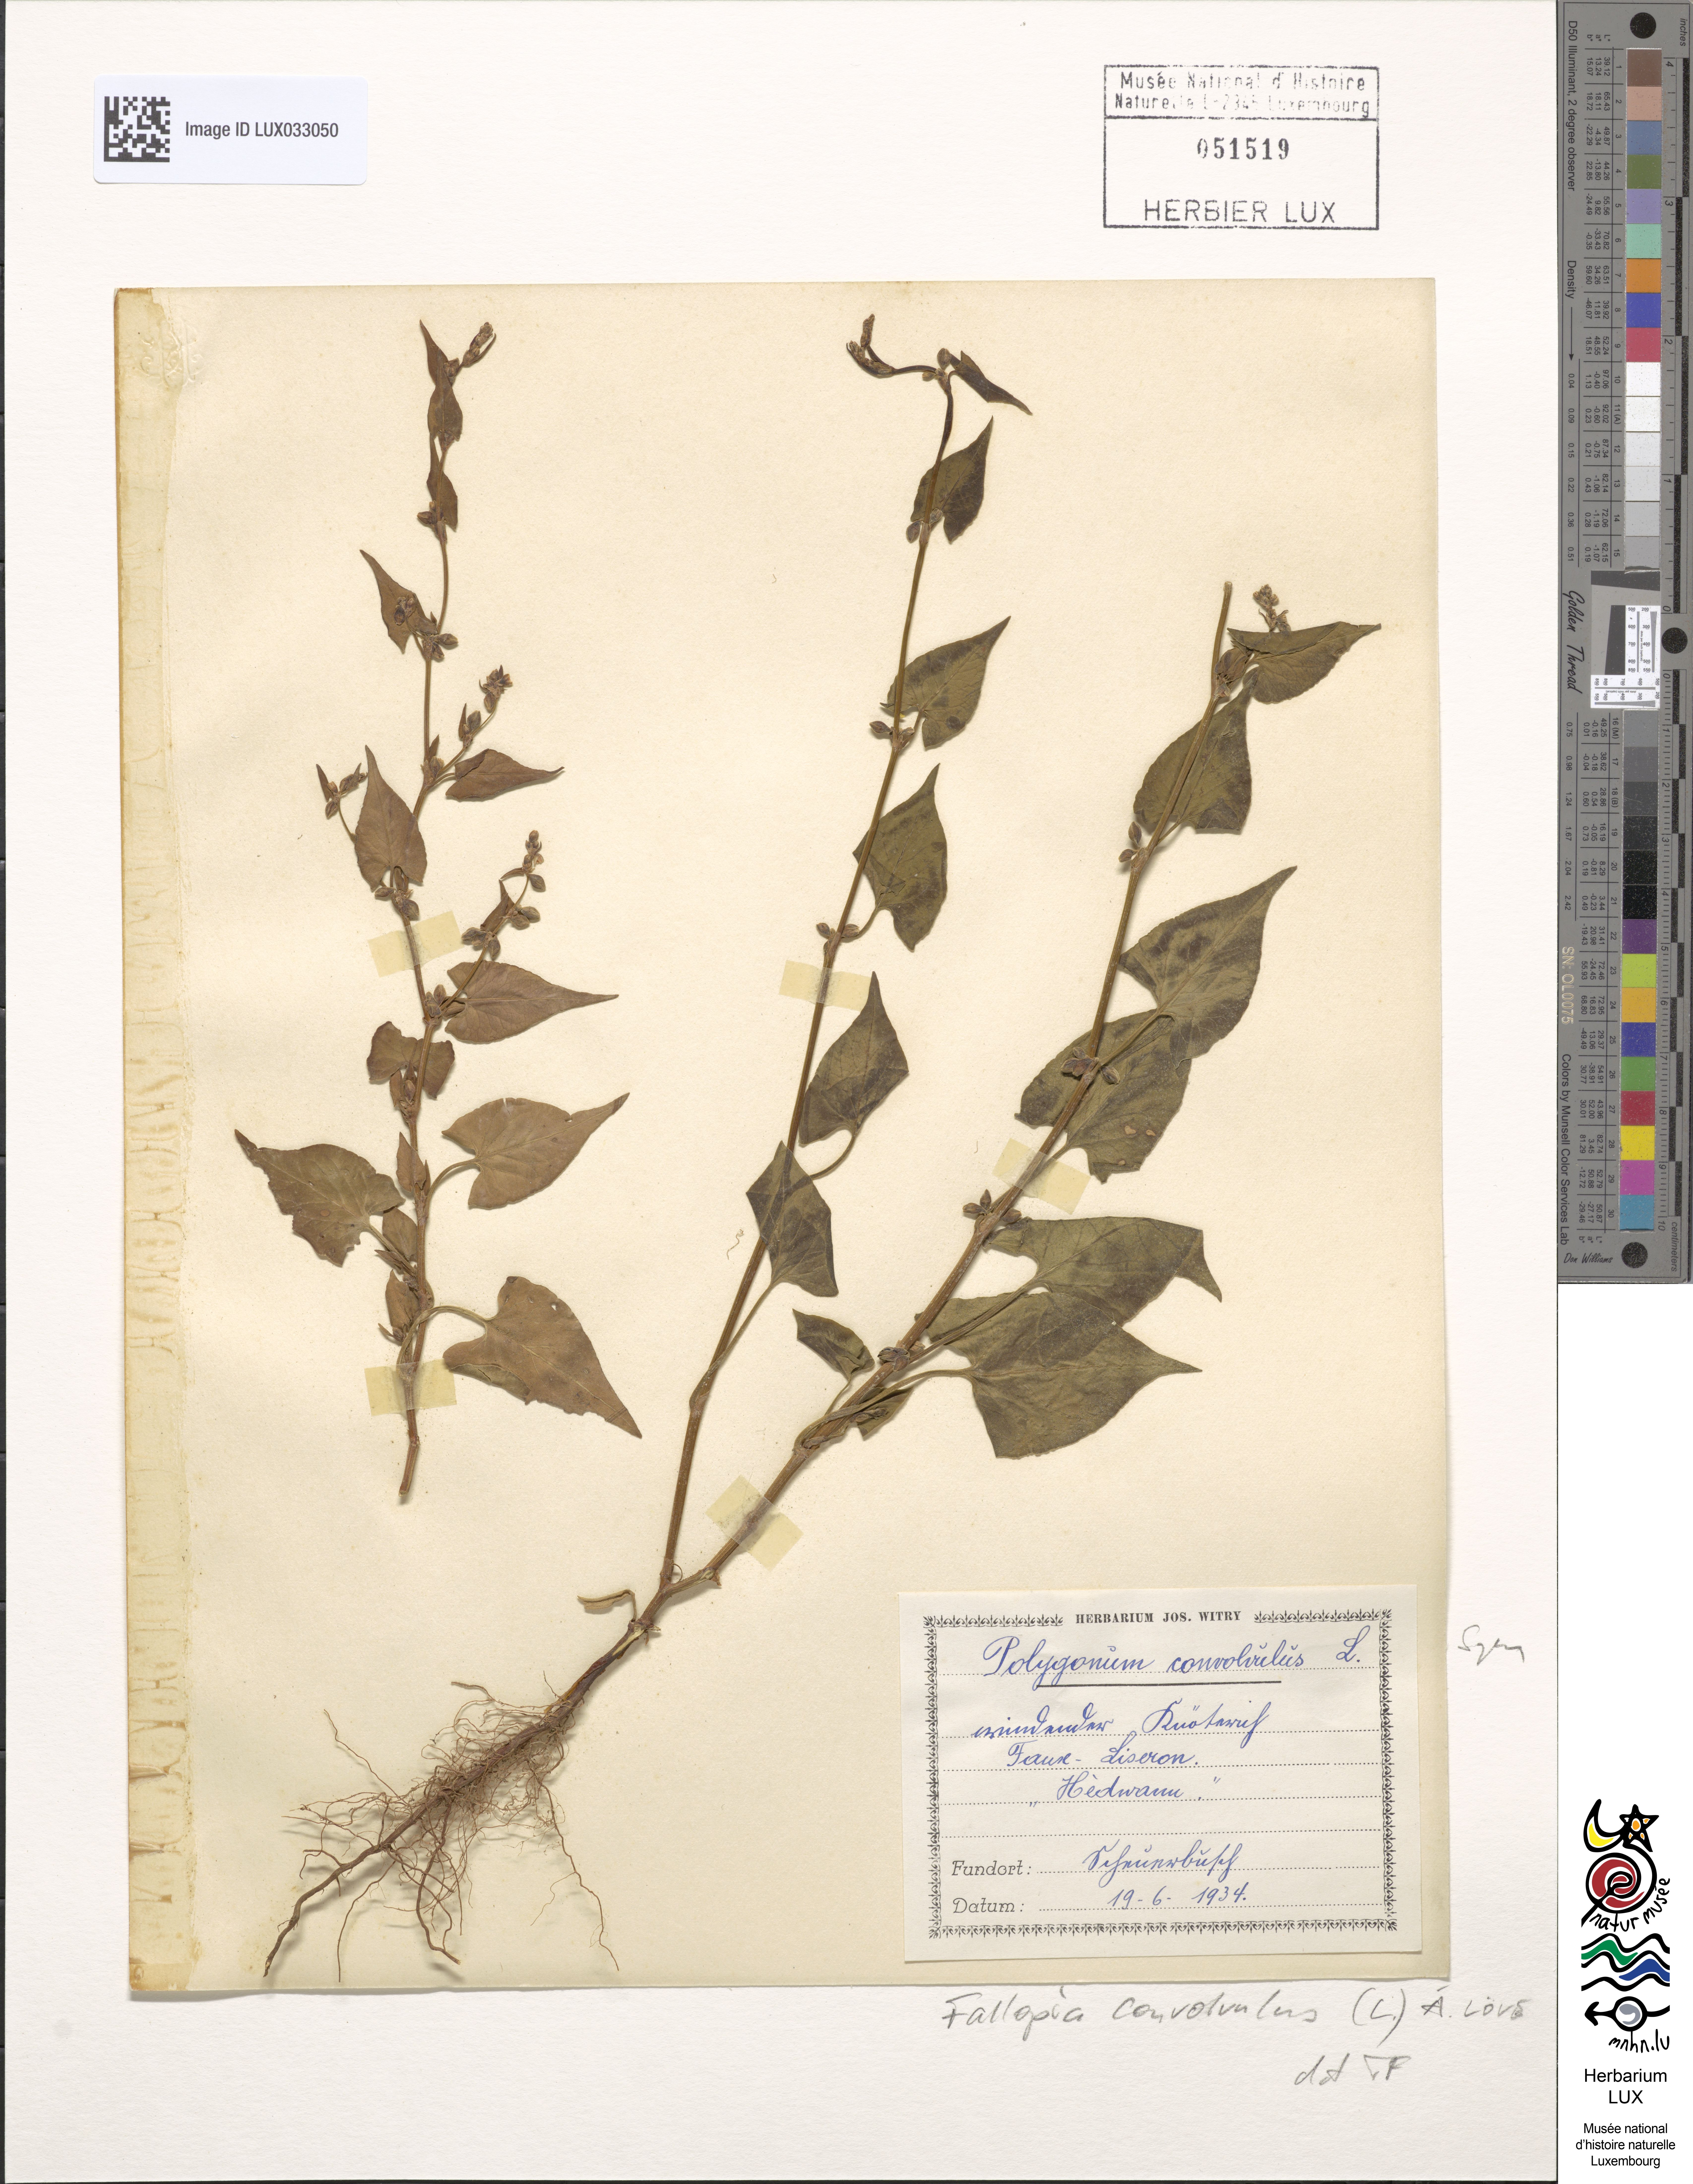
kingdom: Plantae
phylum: Tracheophyta
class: Magnoliopsida
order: Caryophyllales
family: Polygonaceae
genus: Fallopia
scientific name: Fallopia convolvulus
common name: Black bindweed
